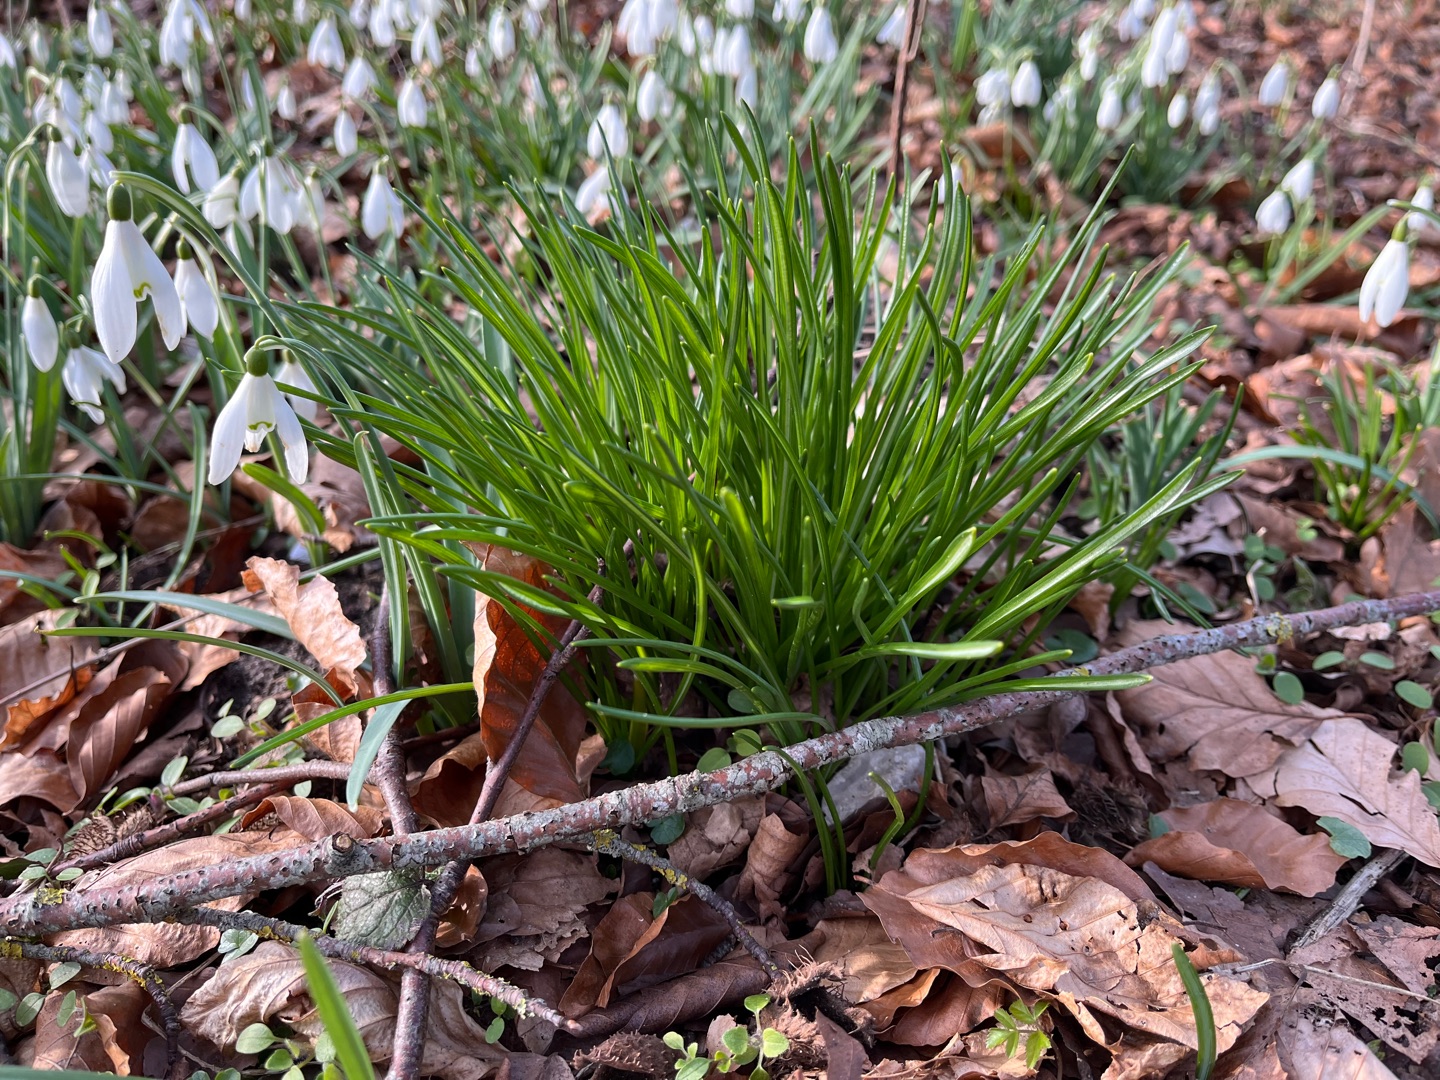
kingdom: Plantae
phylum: Tracheophyta
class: Liliopsida
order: Asparagales
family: Asparagaceae
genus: Ornithogalum
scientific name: Ornithogalum umbellatum
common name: Kost-fuglemælk
